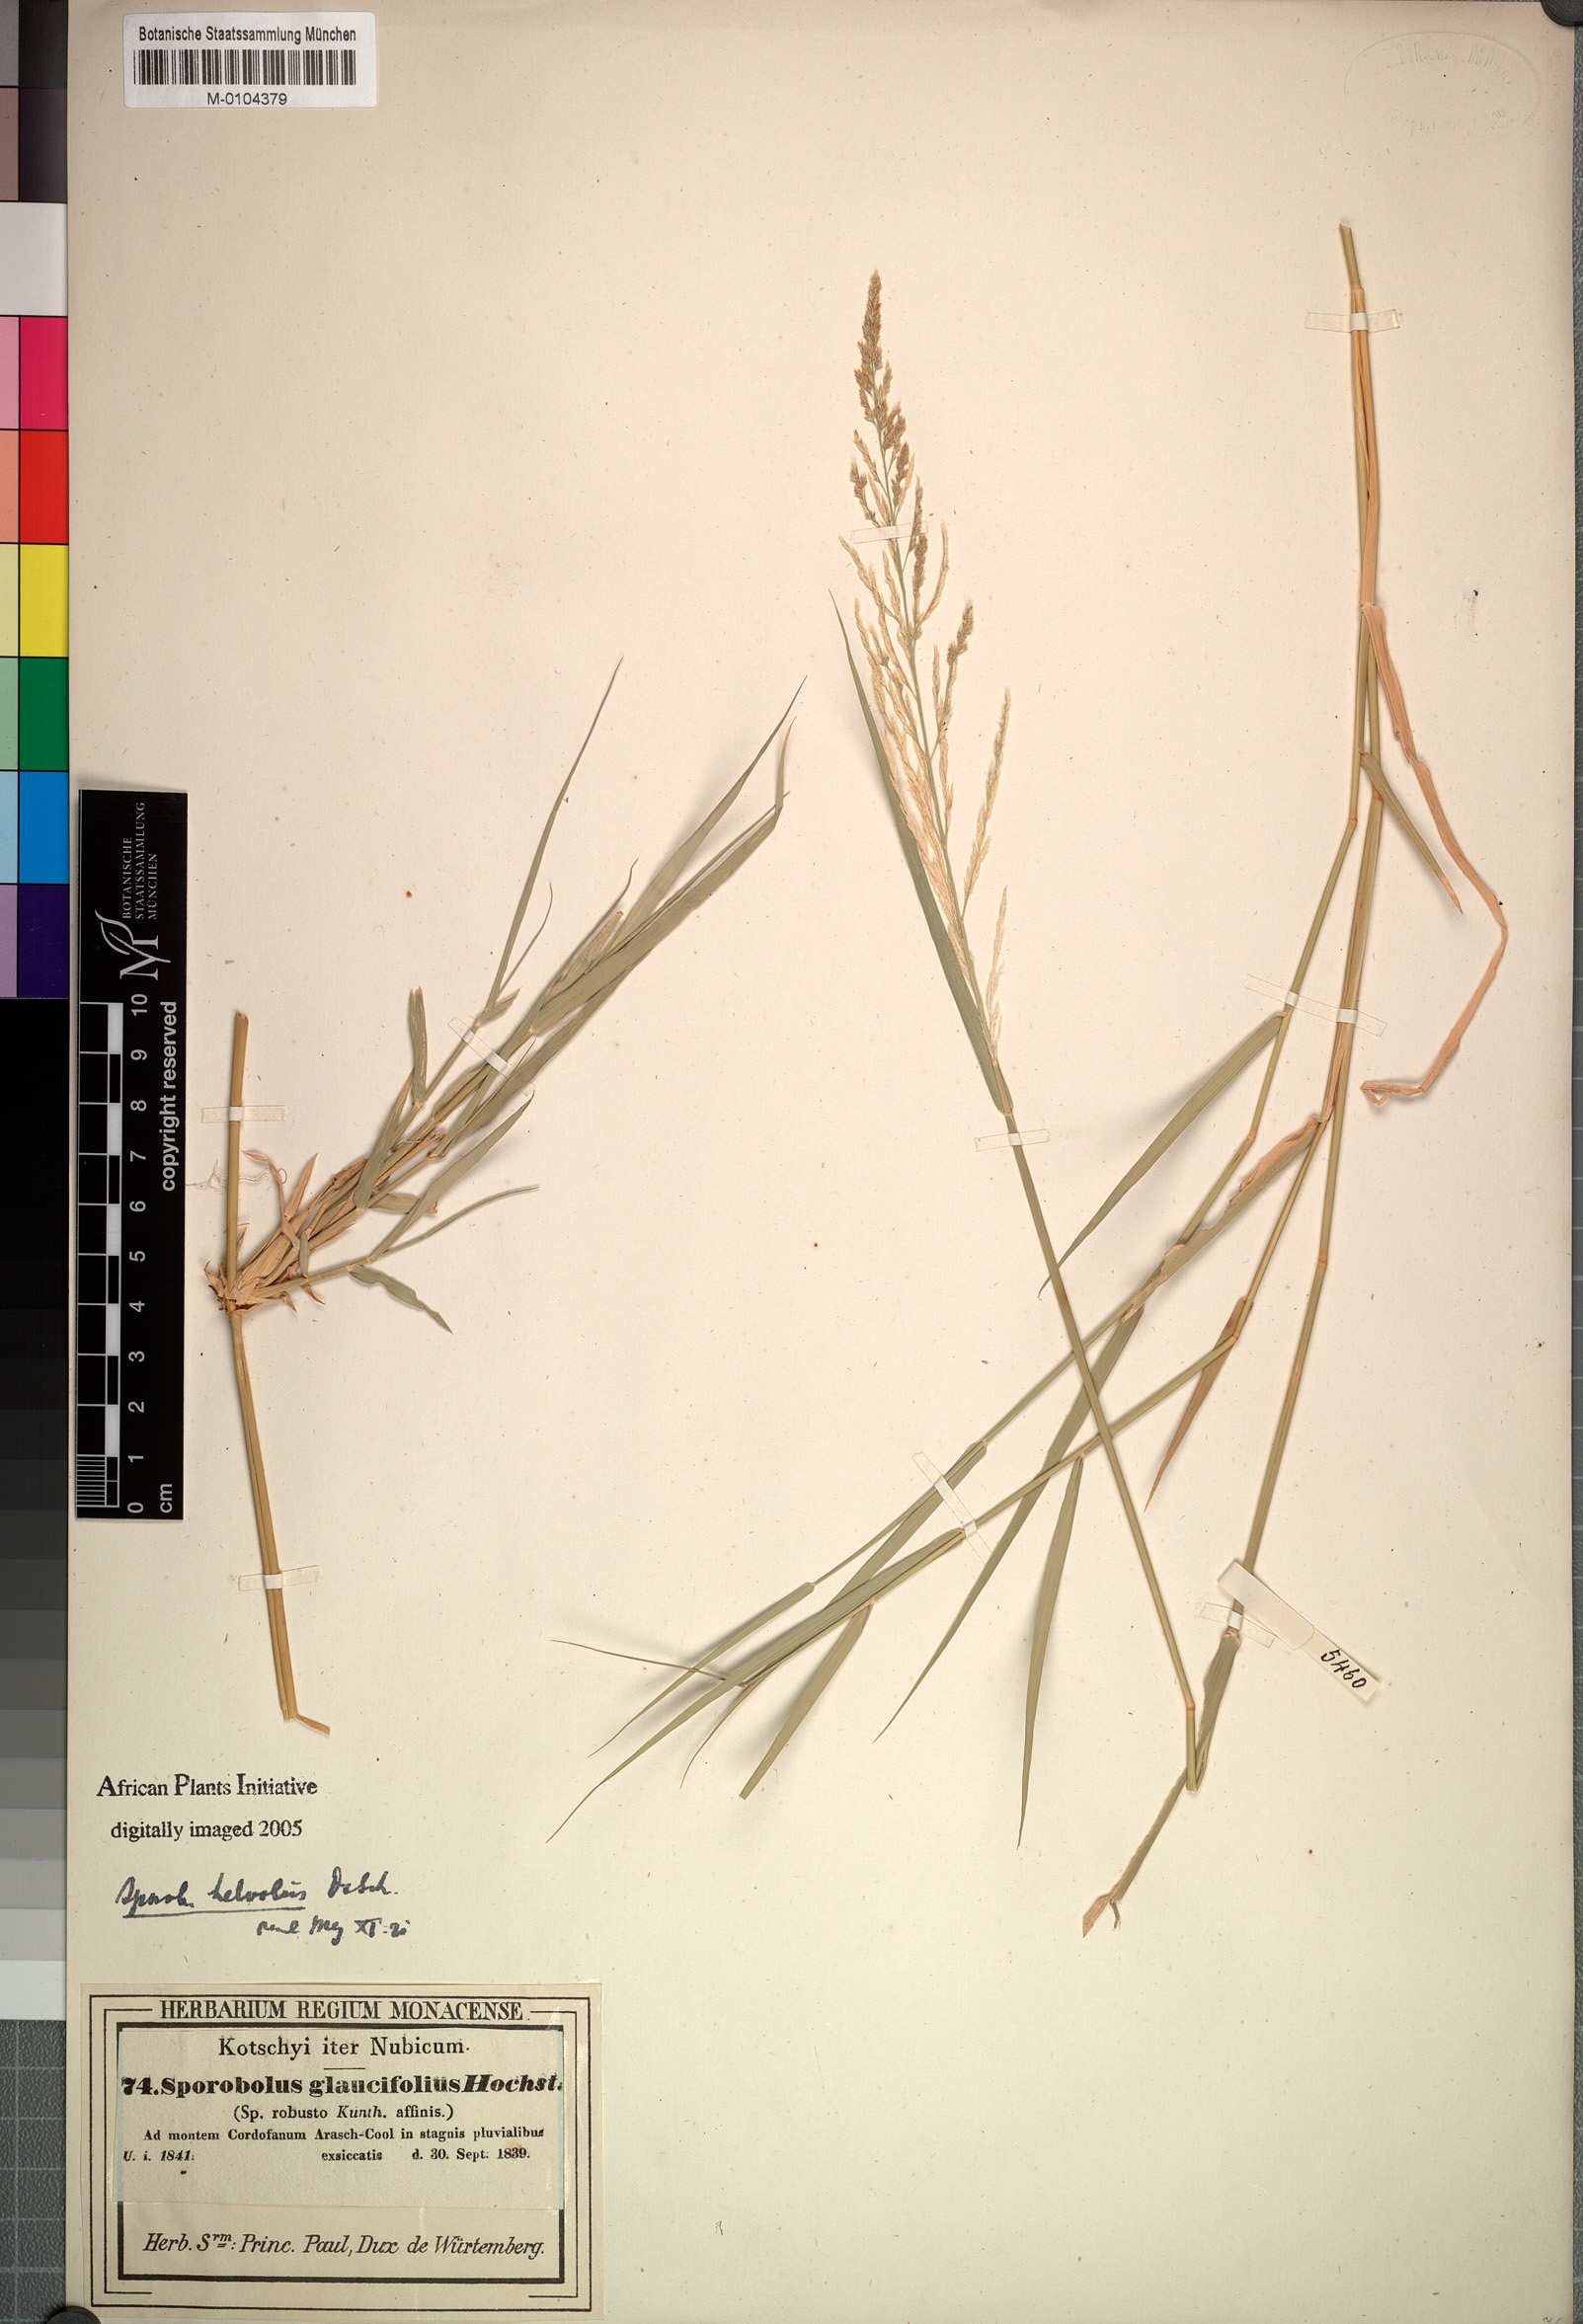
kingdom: Plantae
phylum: Tracheophyta
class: Liliopsida
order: Poales
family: Poaceae
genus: Sporobolus
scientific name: Sporobolus helvolus
